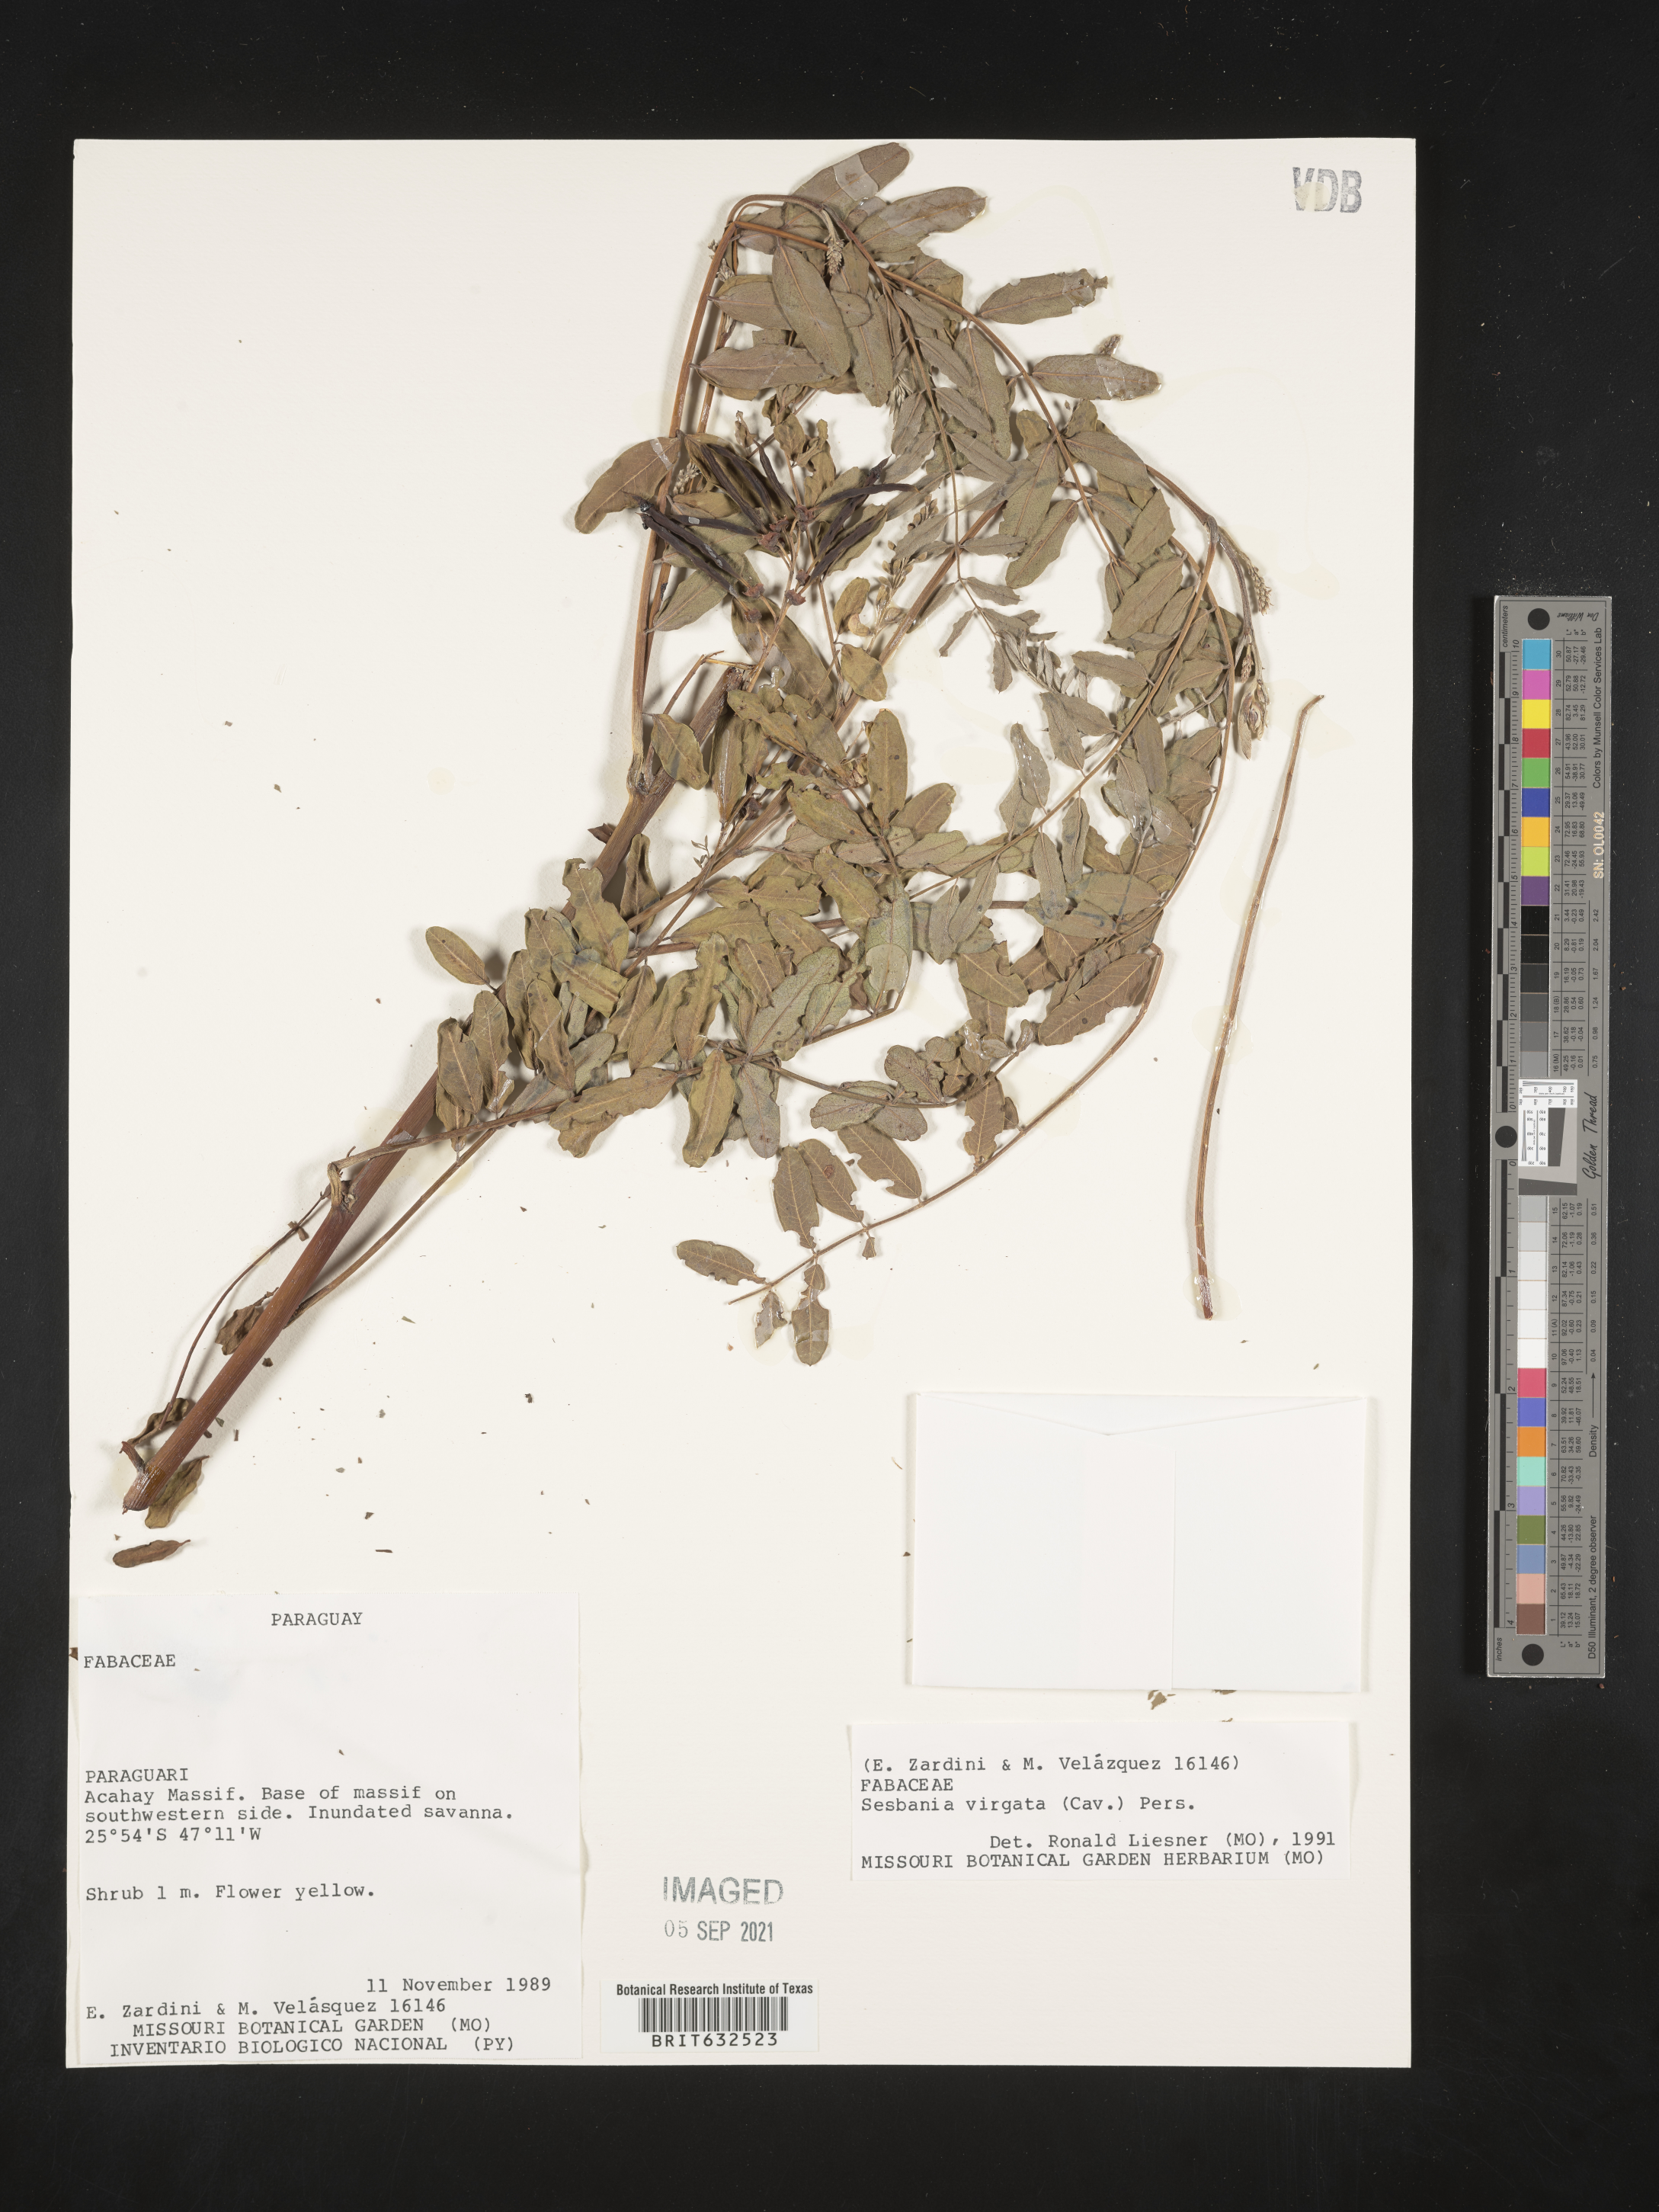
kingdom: Plantae
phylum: Tracheophyta
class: Magnoliopsida
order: Fabales
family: Fabaceae
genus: Sesbania
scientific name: Sesbania
